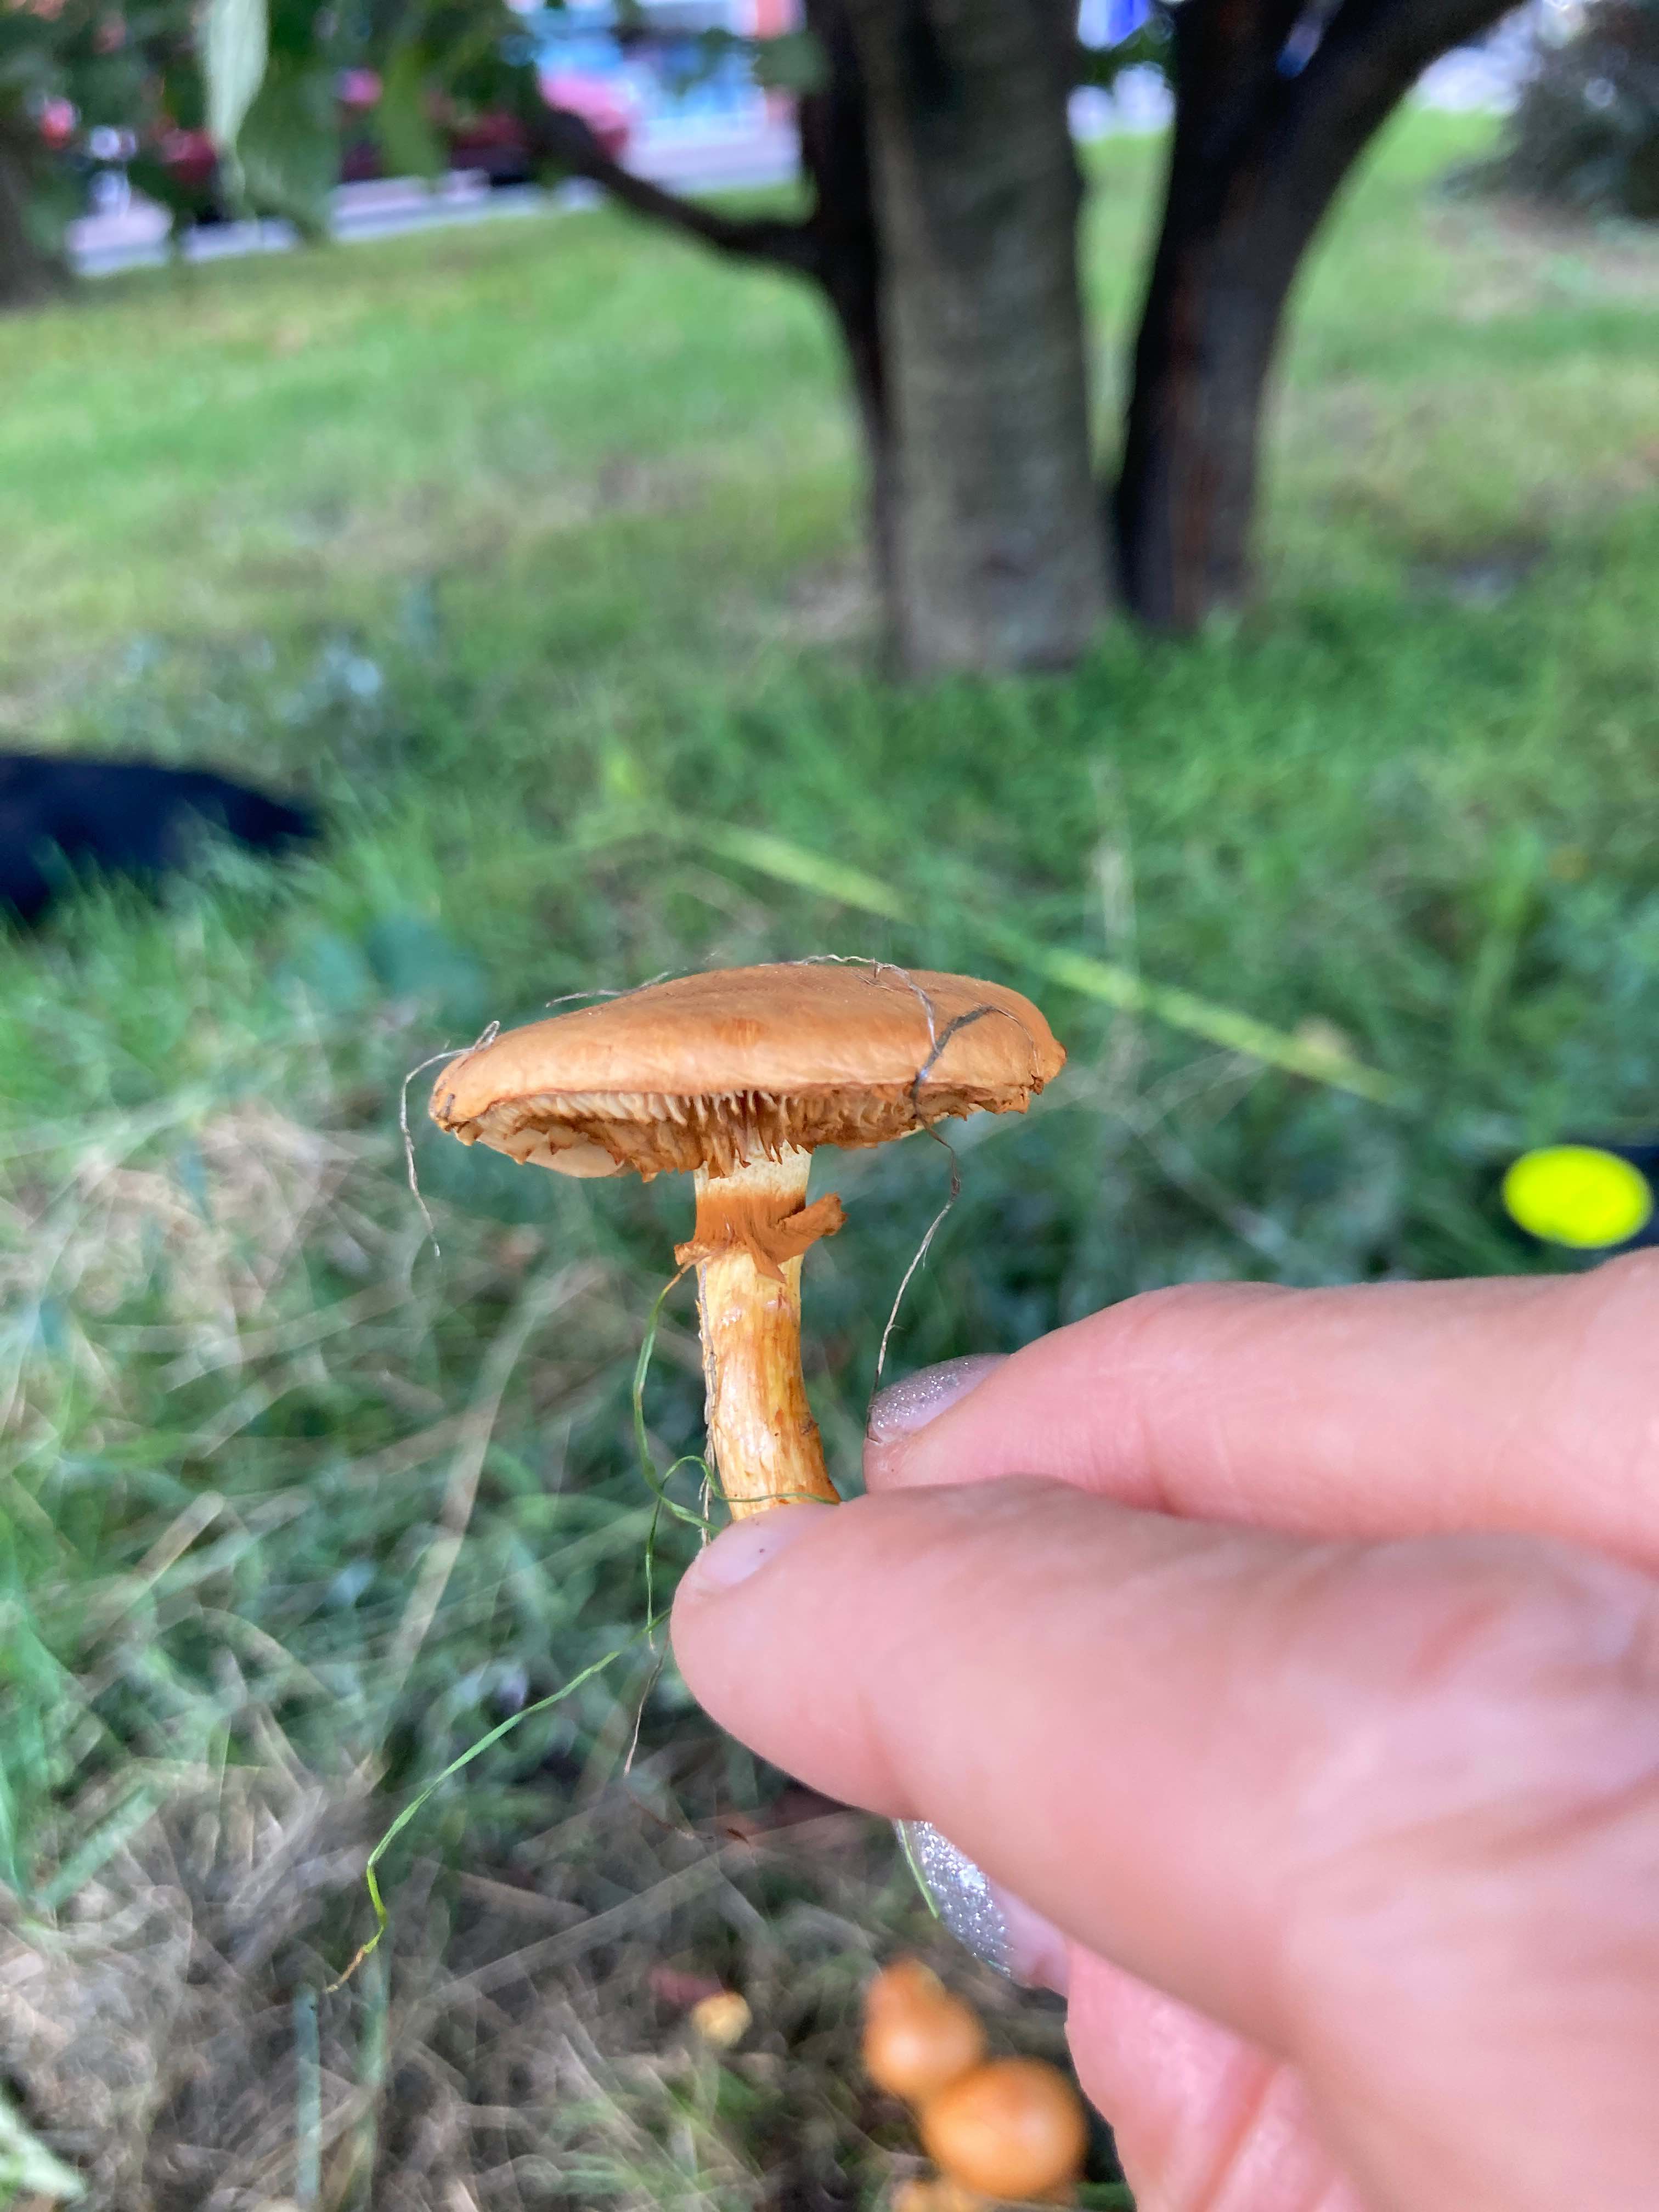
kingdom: Fungi
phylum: Basidiomycota
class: Agaricomycetes
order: Agaricales
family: Hymenogastraceae
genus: Gymnopilus
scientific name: Gymnopilus spectabilis
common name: fibret flammehat
